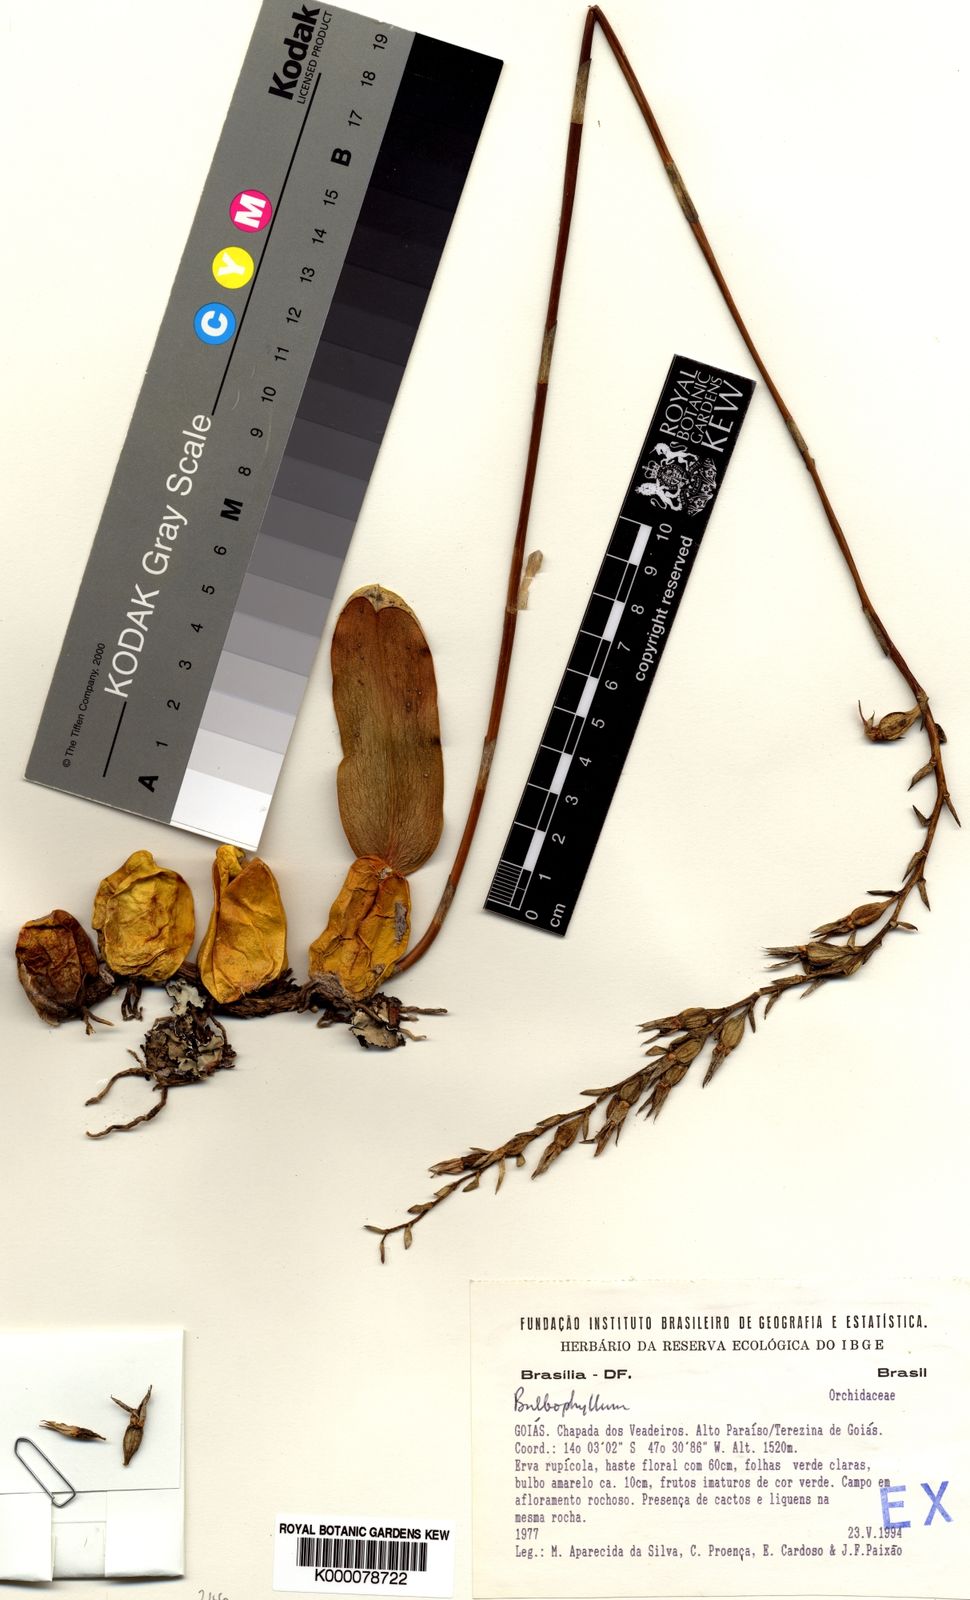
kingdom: Plantae
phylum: Tracheophyta
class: Liliopsida
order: Asparagales
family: Orchidaceae
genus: Bulbophyllum
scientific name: Bulbophyllum
